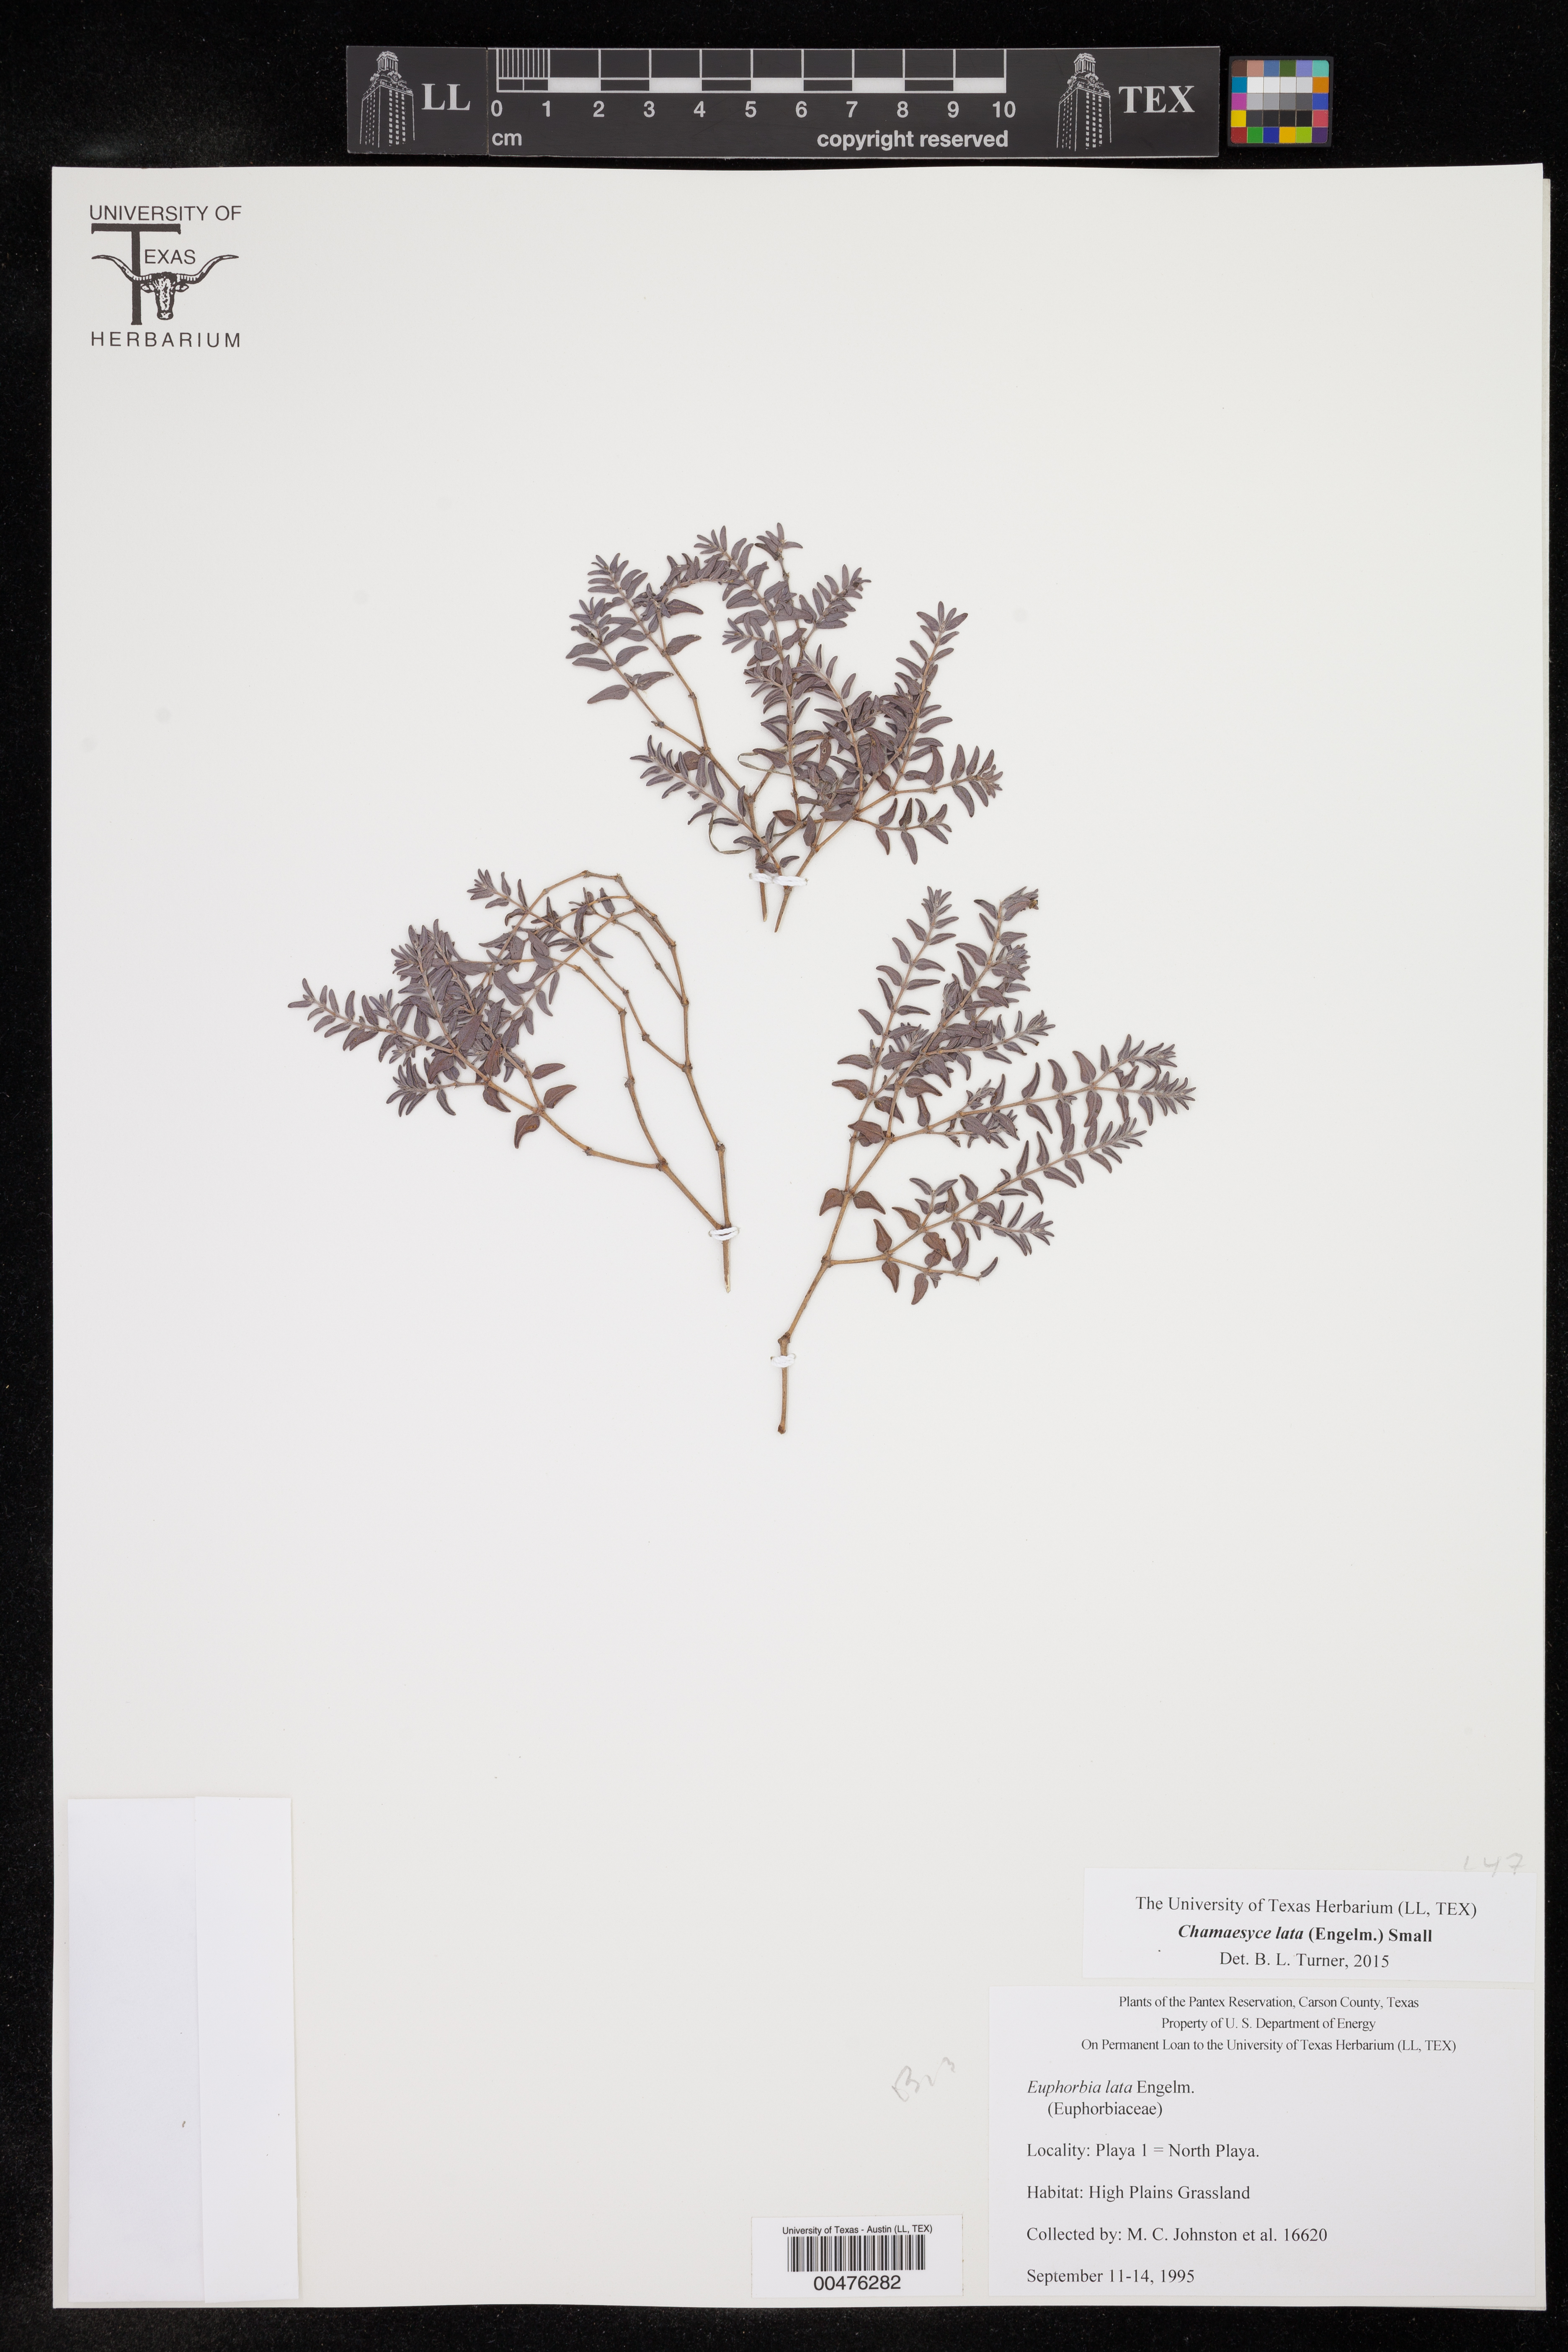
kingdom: Plantae
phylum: Tracheophyta
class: Magnoliopsida
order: Malpighiales
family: Euphorbiaceae
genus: Euphorbia
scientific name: Euphorbia lata
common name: Hoary euphorbia
